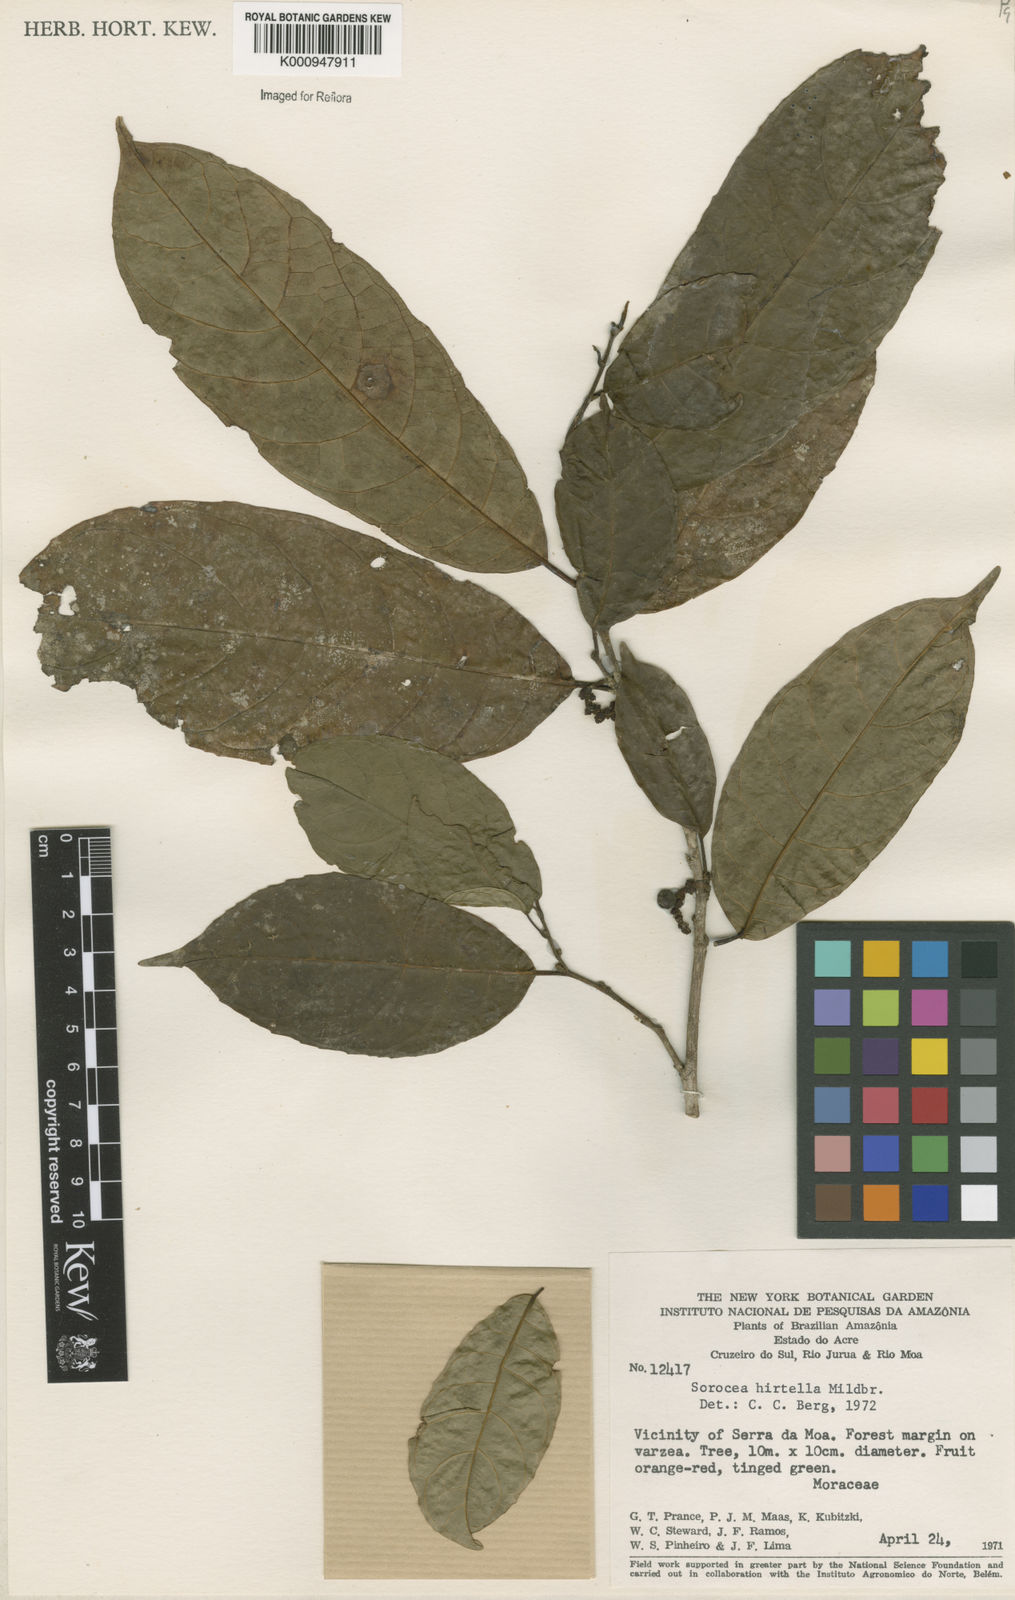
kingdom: Plantae
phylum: Tracheophyta
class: Magnoliopsida
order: Rosales
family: Moraceae
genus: Sorocea
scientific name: Sorocea pubivena
